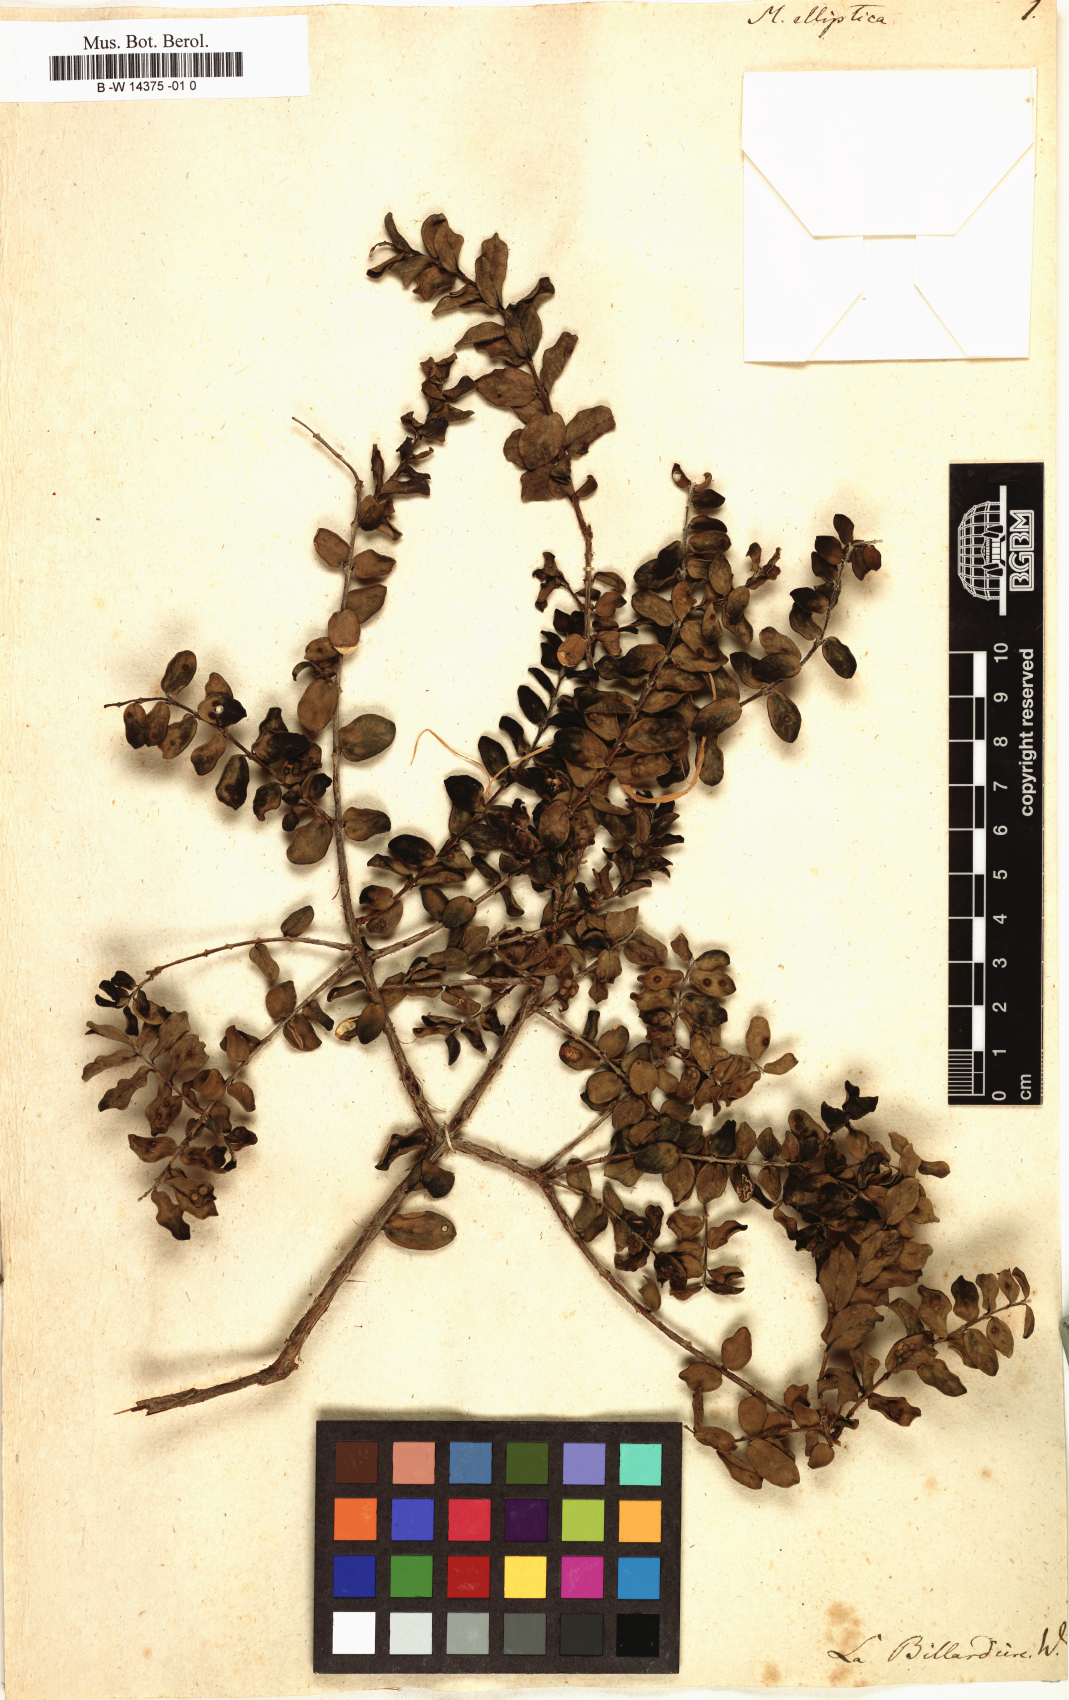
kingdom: Plantae
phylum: Tracheophyta
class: Magnoliopsida
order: Myrtales
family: Myrtaceae
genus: Melaleuca
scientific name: Melaleuca elliptica
